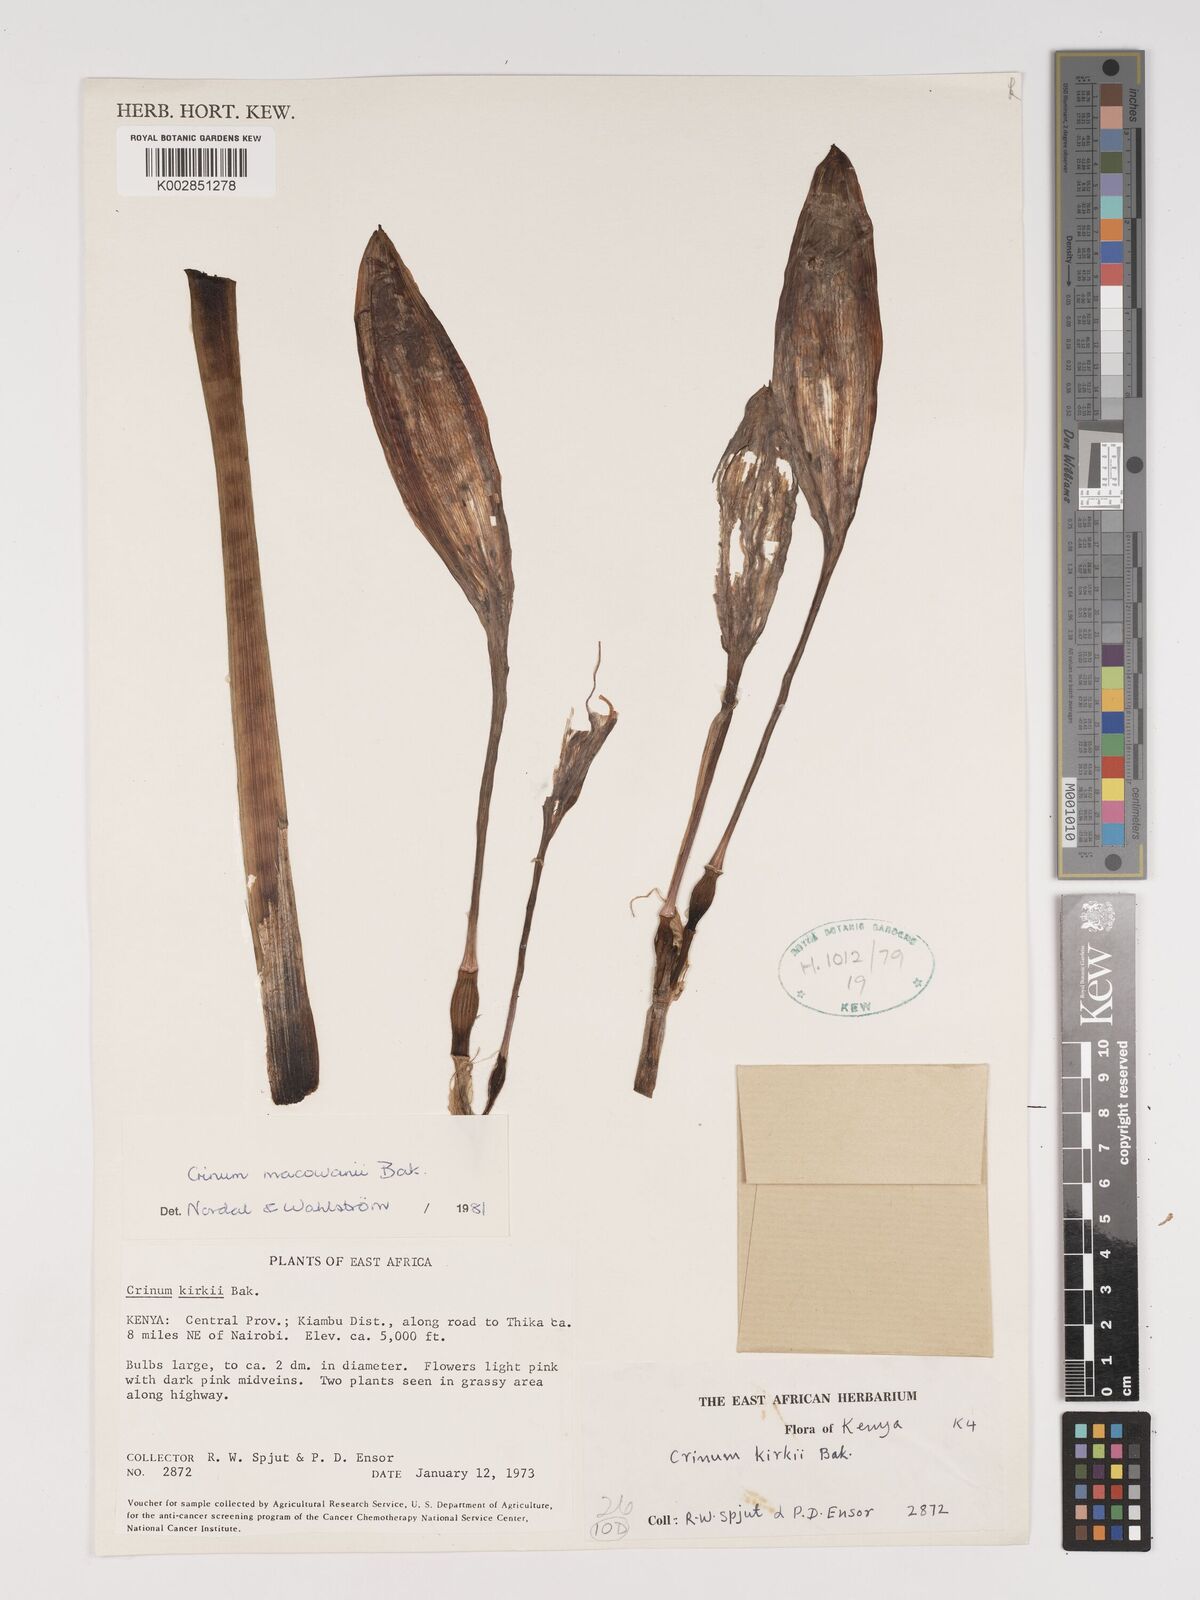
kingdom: Plantae
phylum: Tracheophyta
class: Liliopsida
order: Asparagales
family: Amaryllidaceae
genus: Crinum
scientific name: Crinum macowanii
